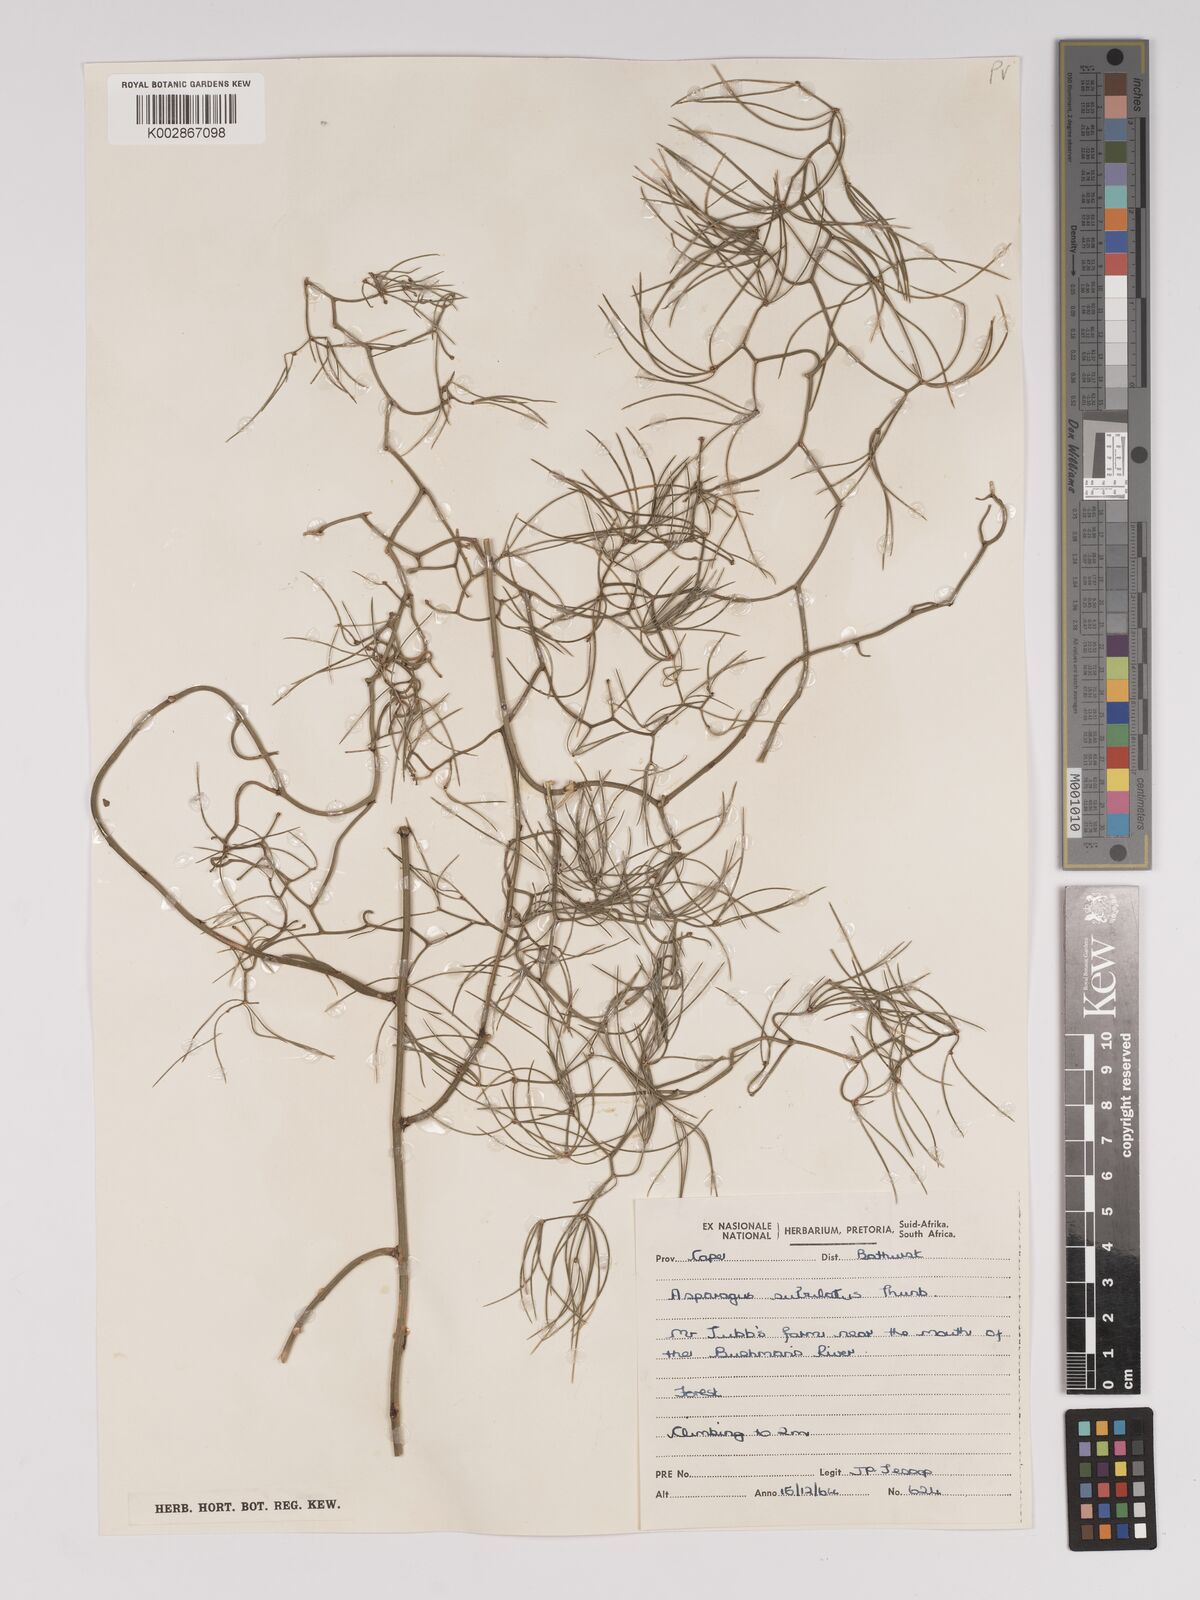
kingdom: Plantae
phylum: Tracheophyta
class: Liliopsida
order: Asparagales
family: Asparagaceae
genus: Asparagus
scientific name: Asparagus subulatus
